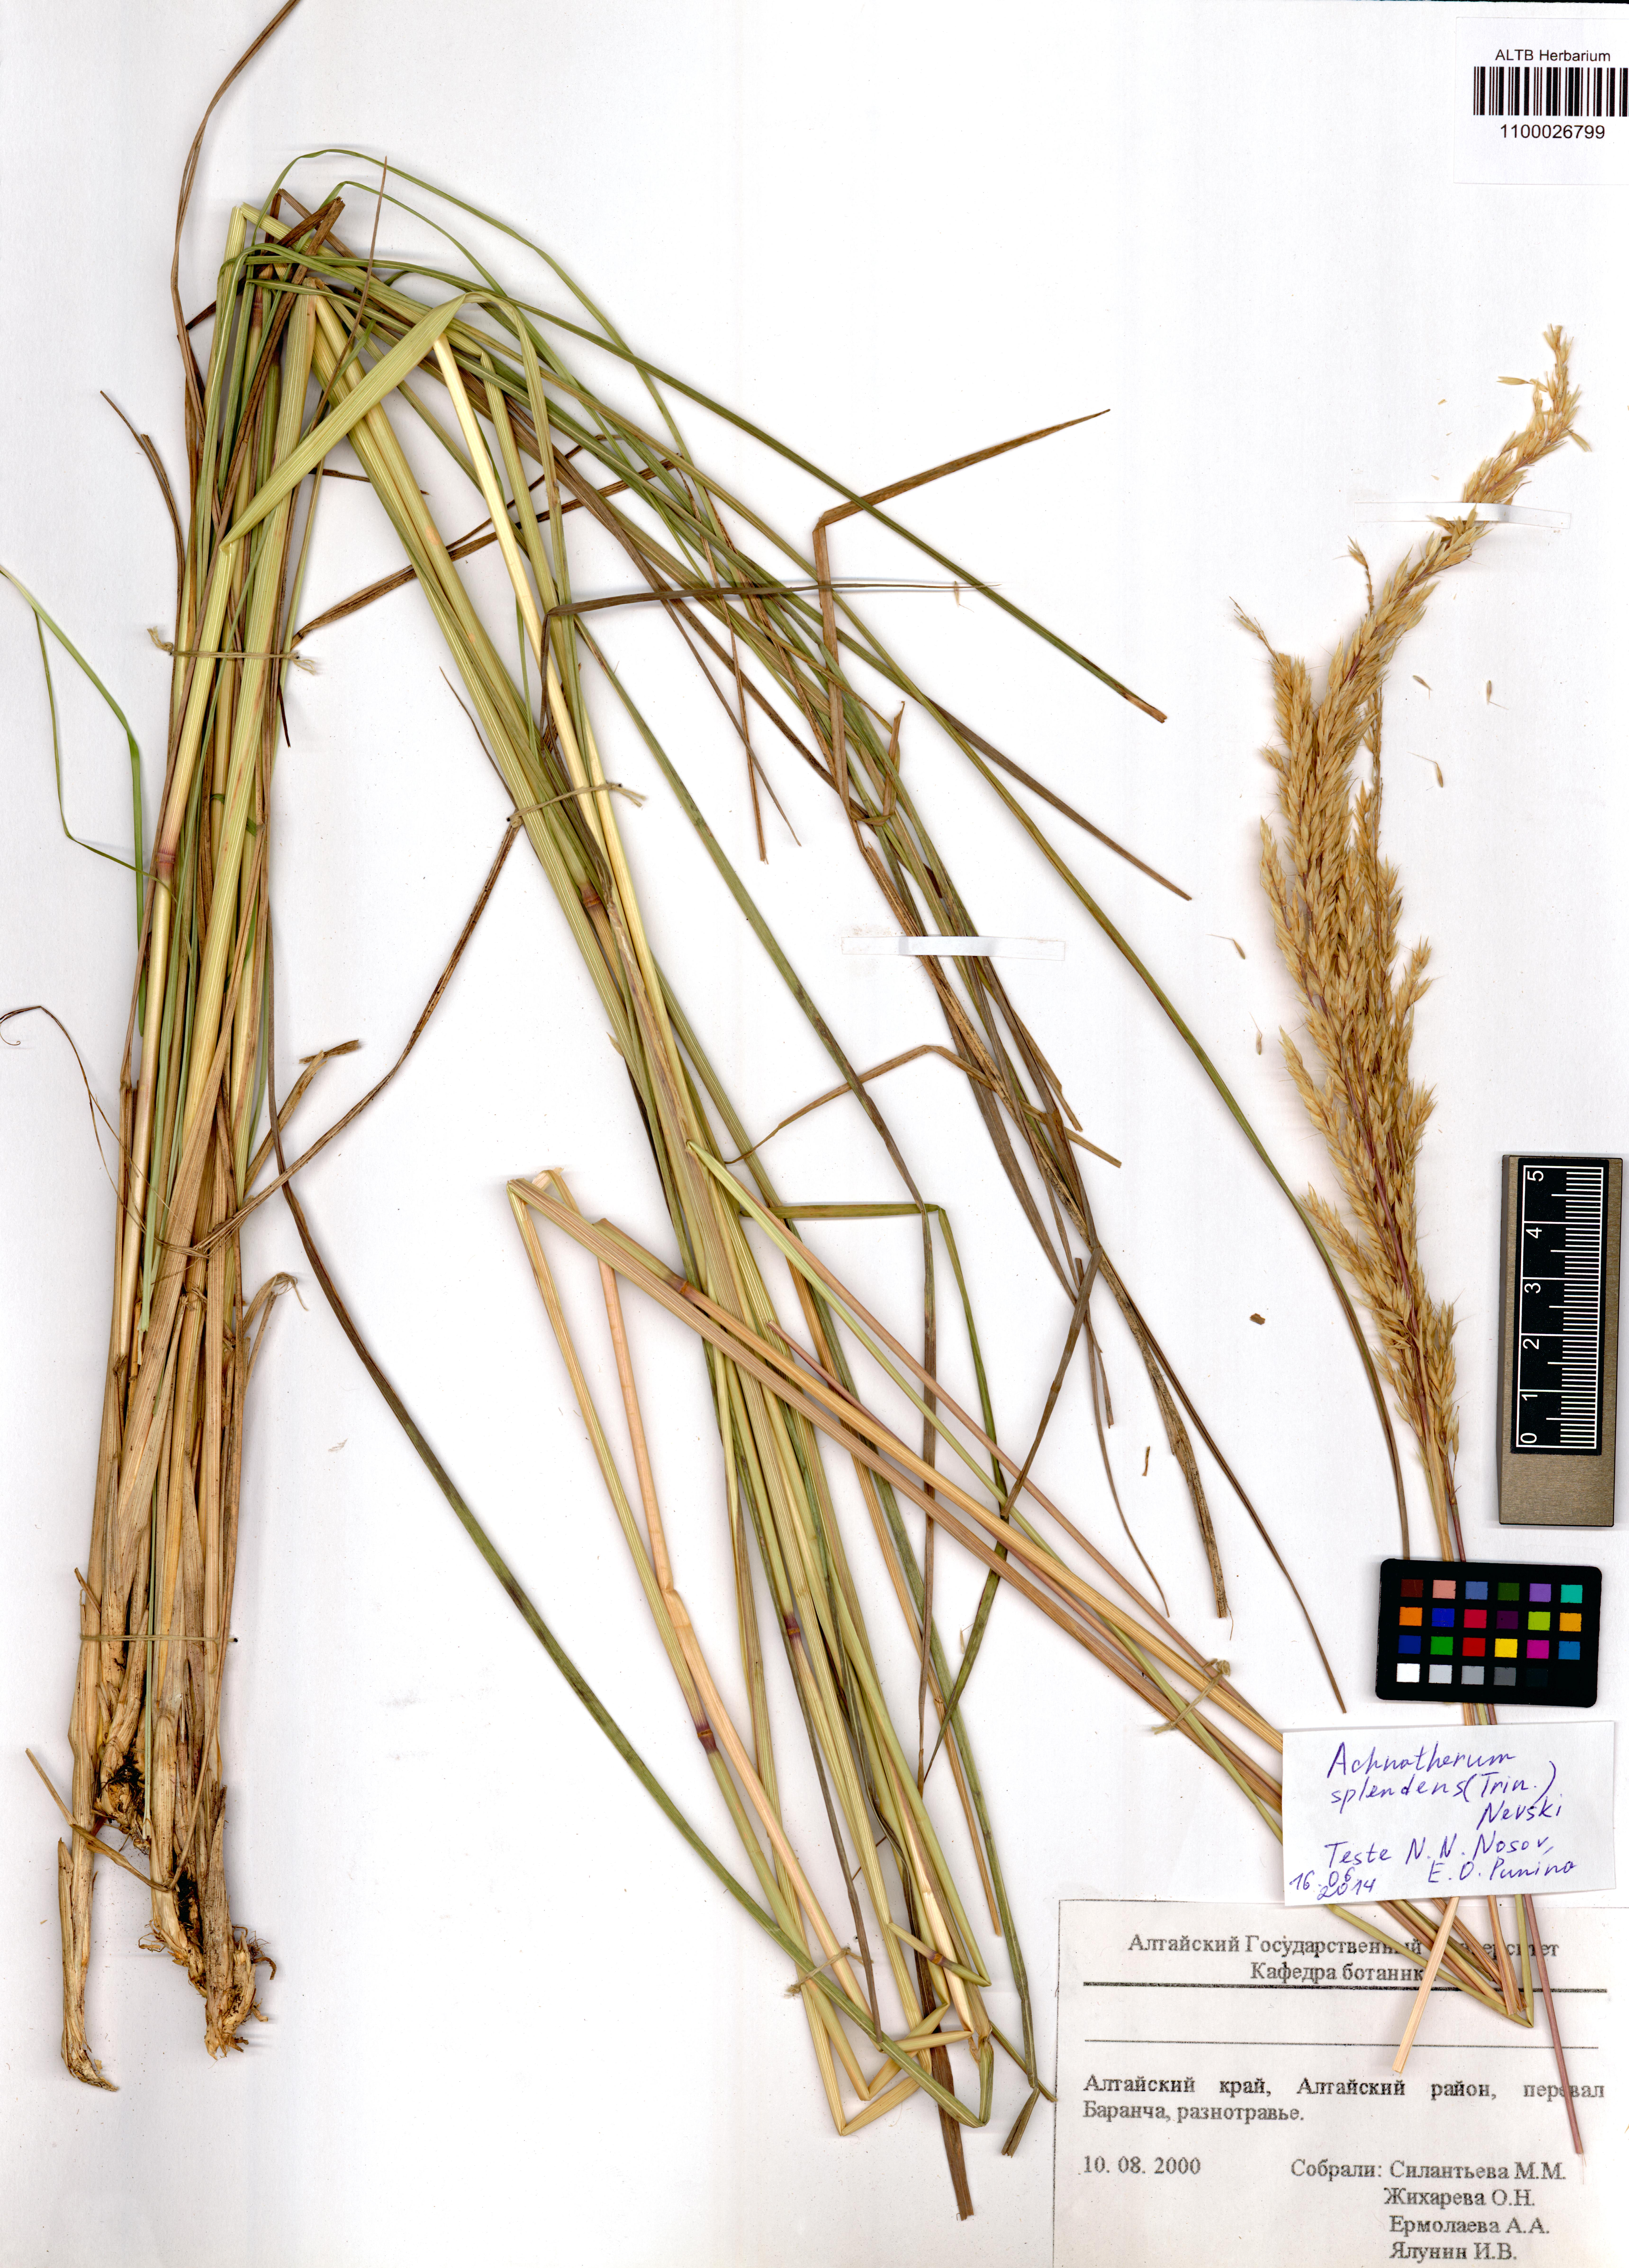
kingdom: Plantae
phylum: Tracheophyta
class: Liliopsida
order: Poales
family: Poaceae
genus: Neotrinia
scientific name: Neotrinia splendens
